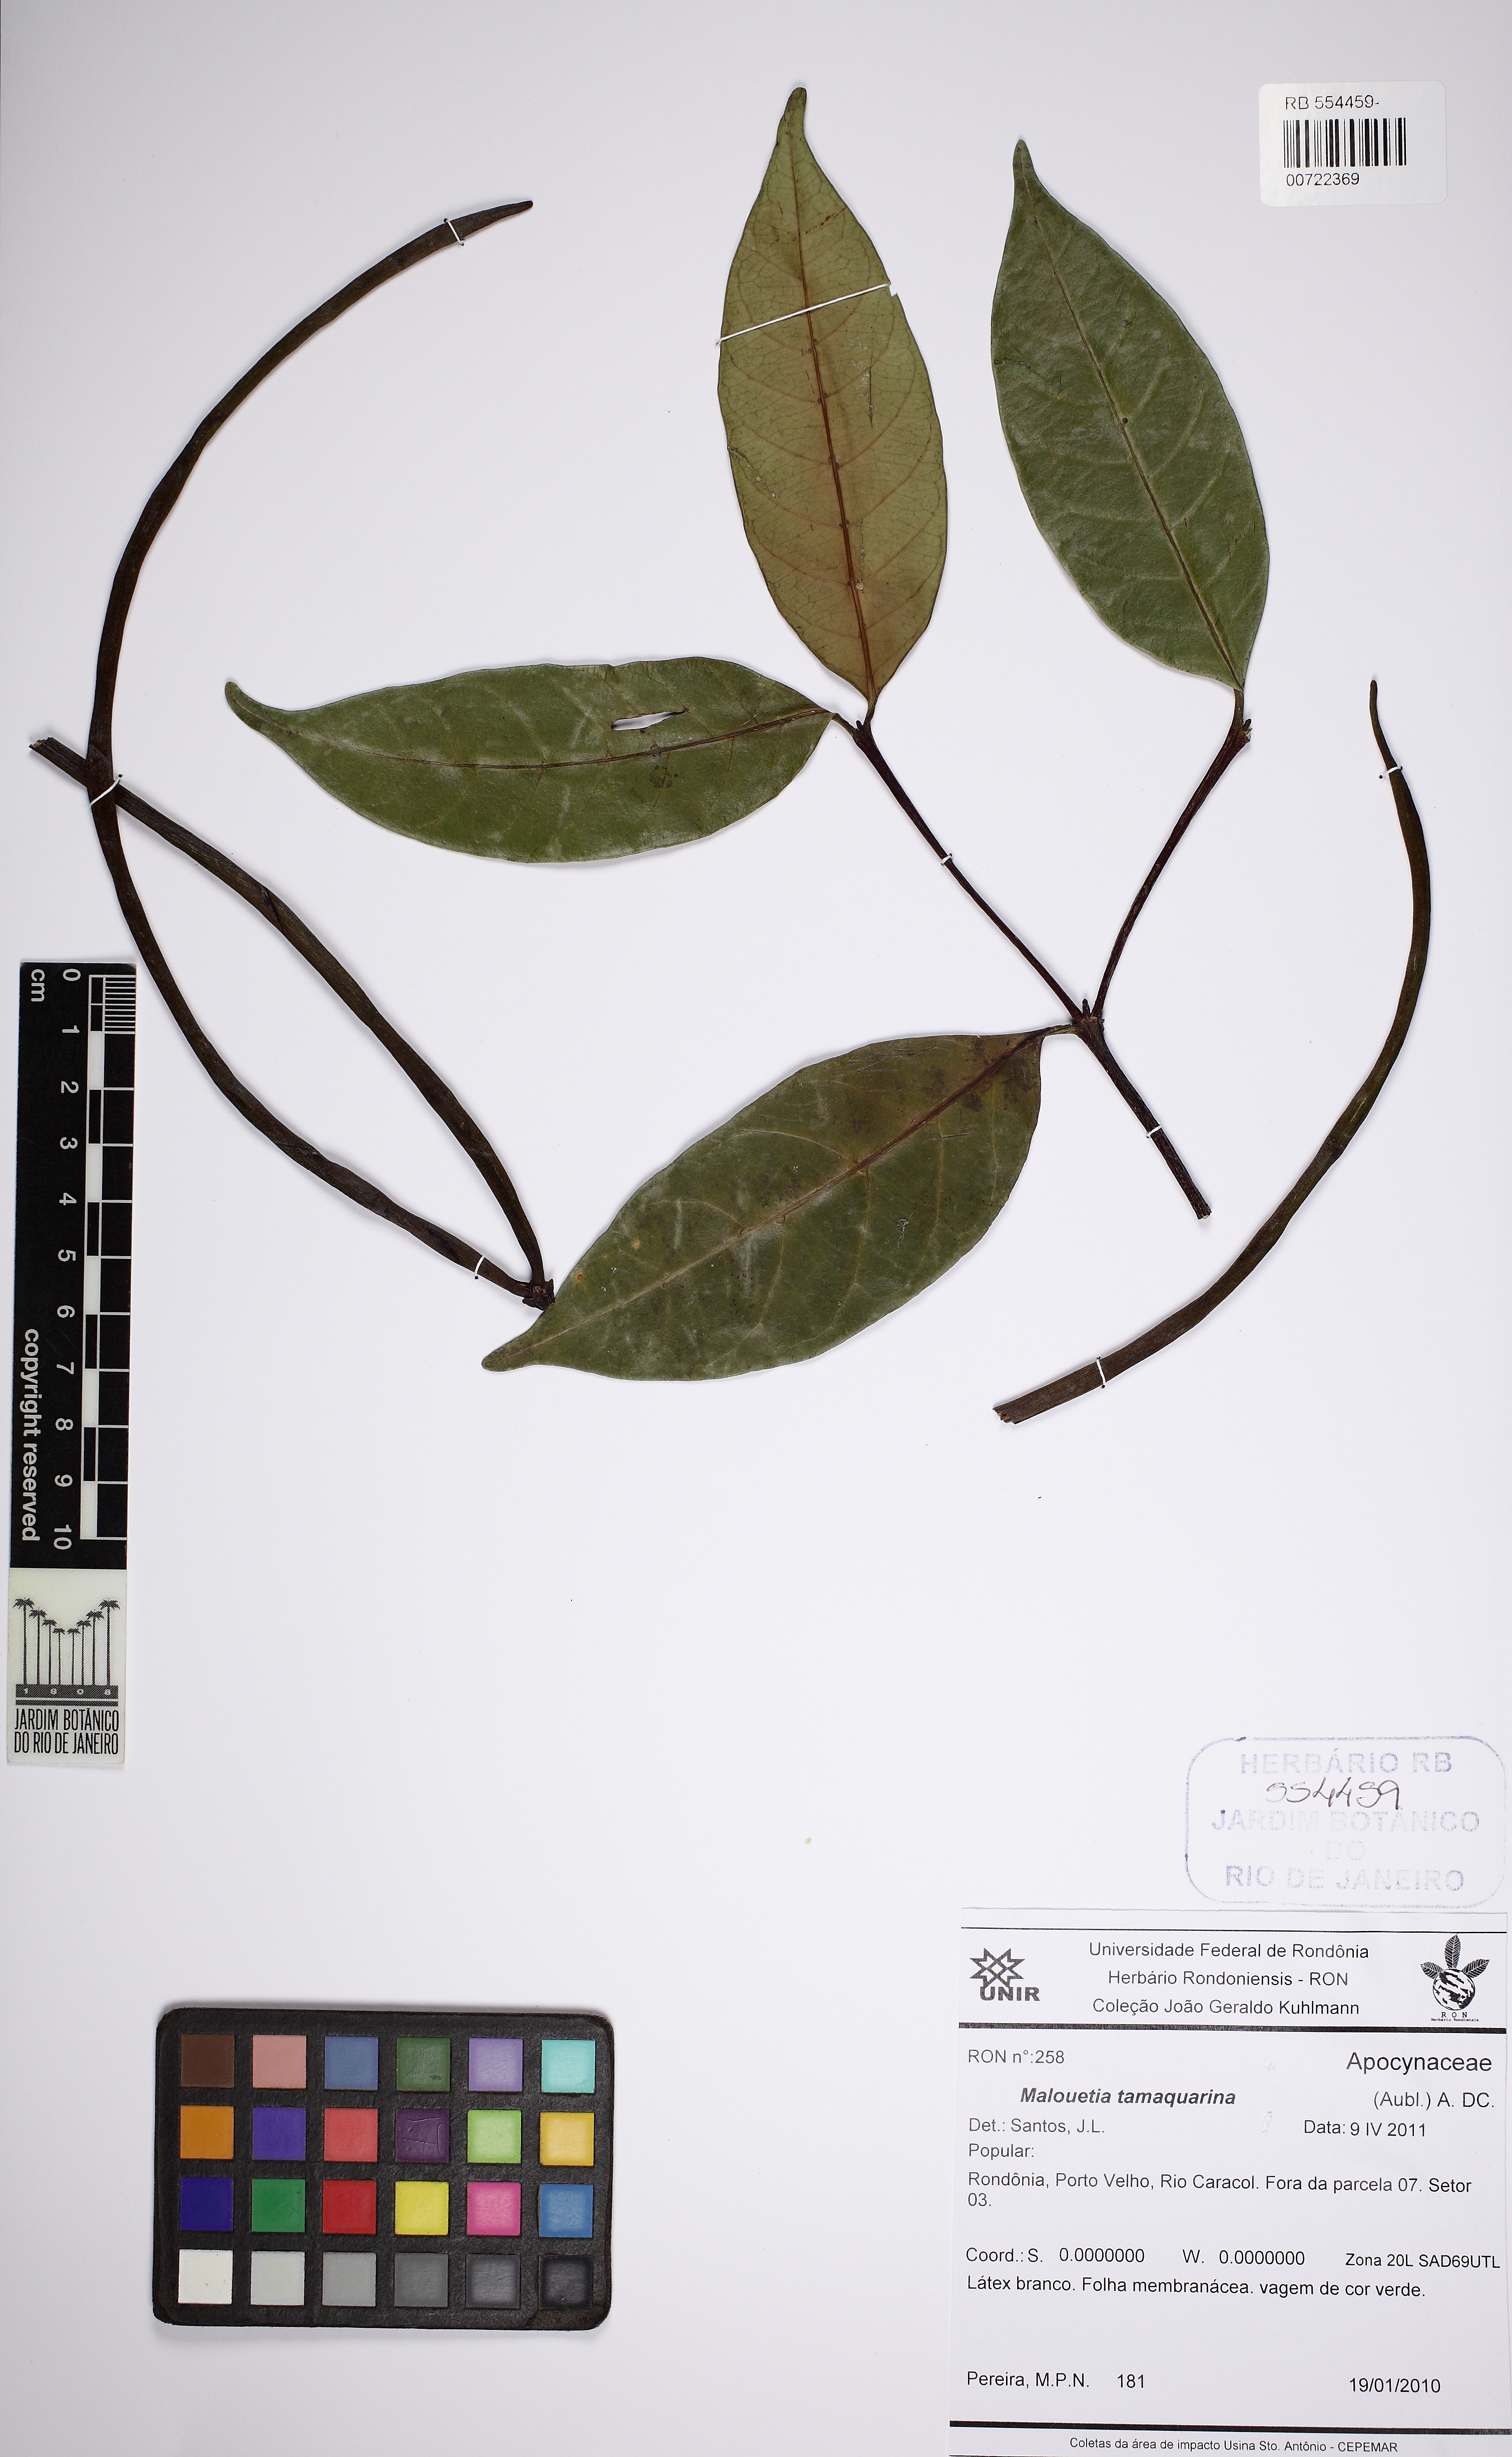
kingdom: Plantae
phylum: Tracheophyta
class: Magnoliopsida
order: Gentianales
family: Apocynaceae
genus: Malouetia
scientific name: Malouetia tamaquarina
